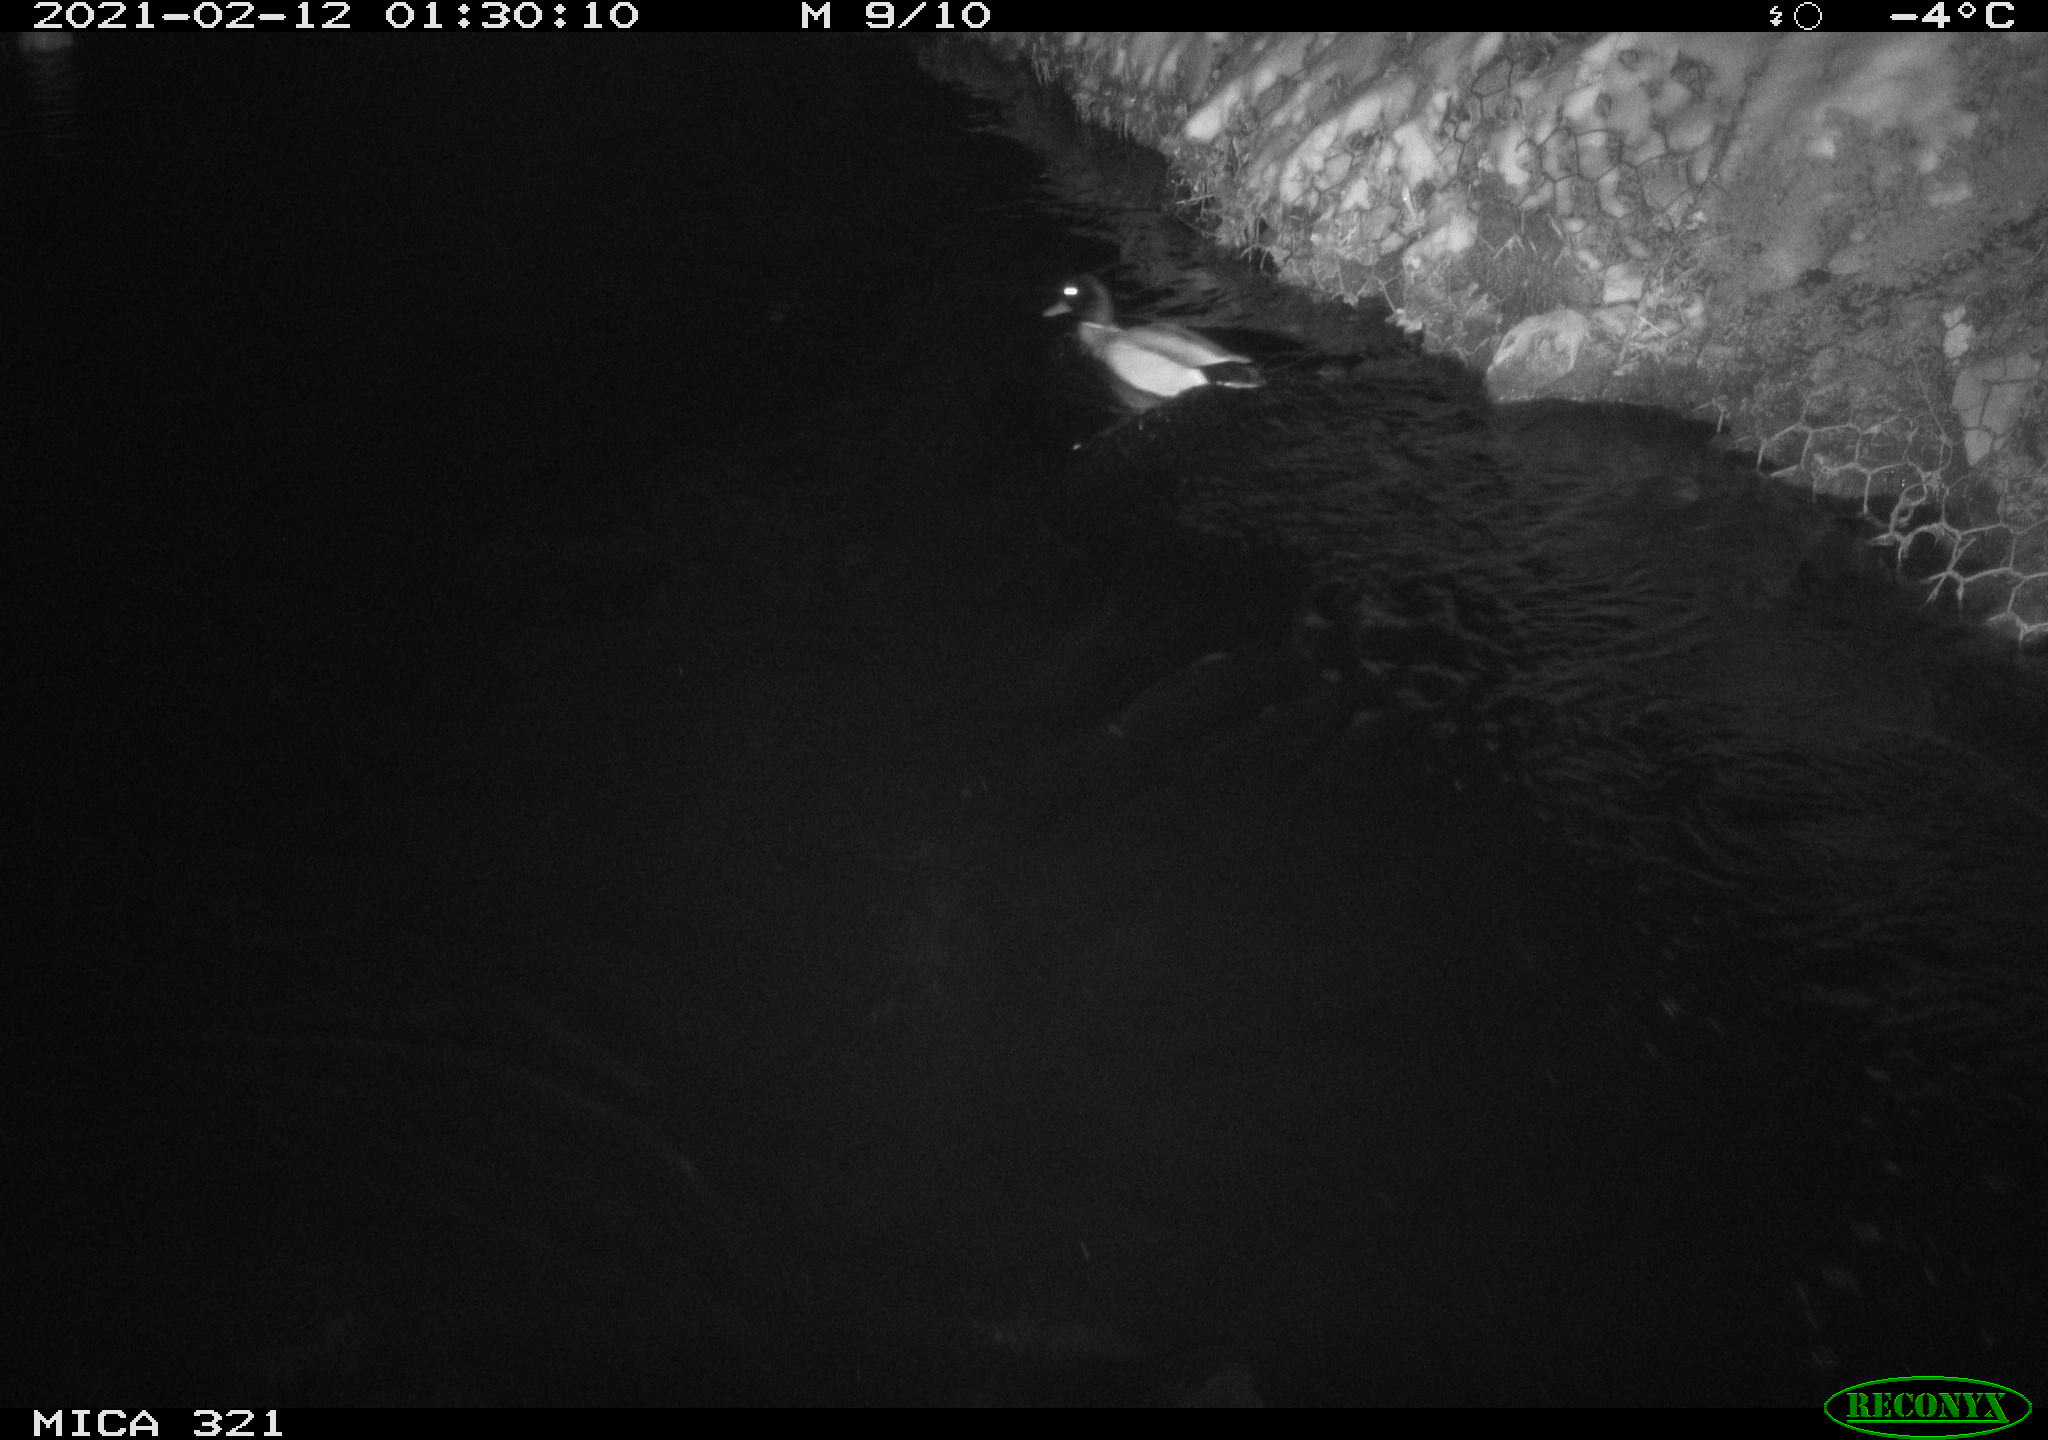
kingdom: Animalia
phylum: Chordata
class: Aves
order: Anseriformes
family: Anatidae
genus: Anas
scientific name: Anas platyrhynchos
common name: Mallard
